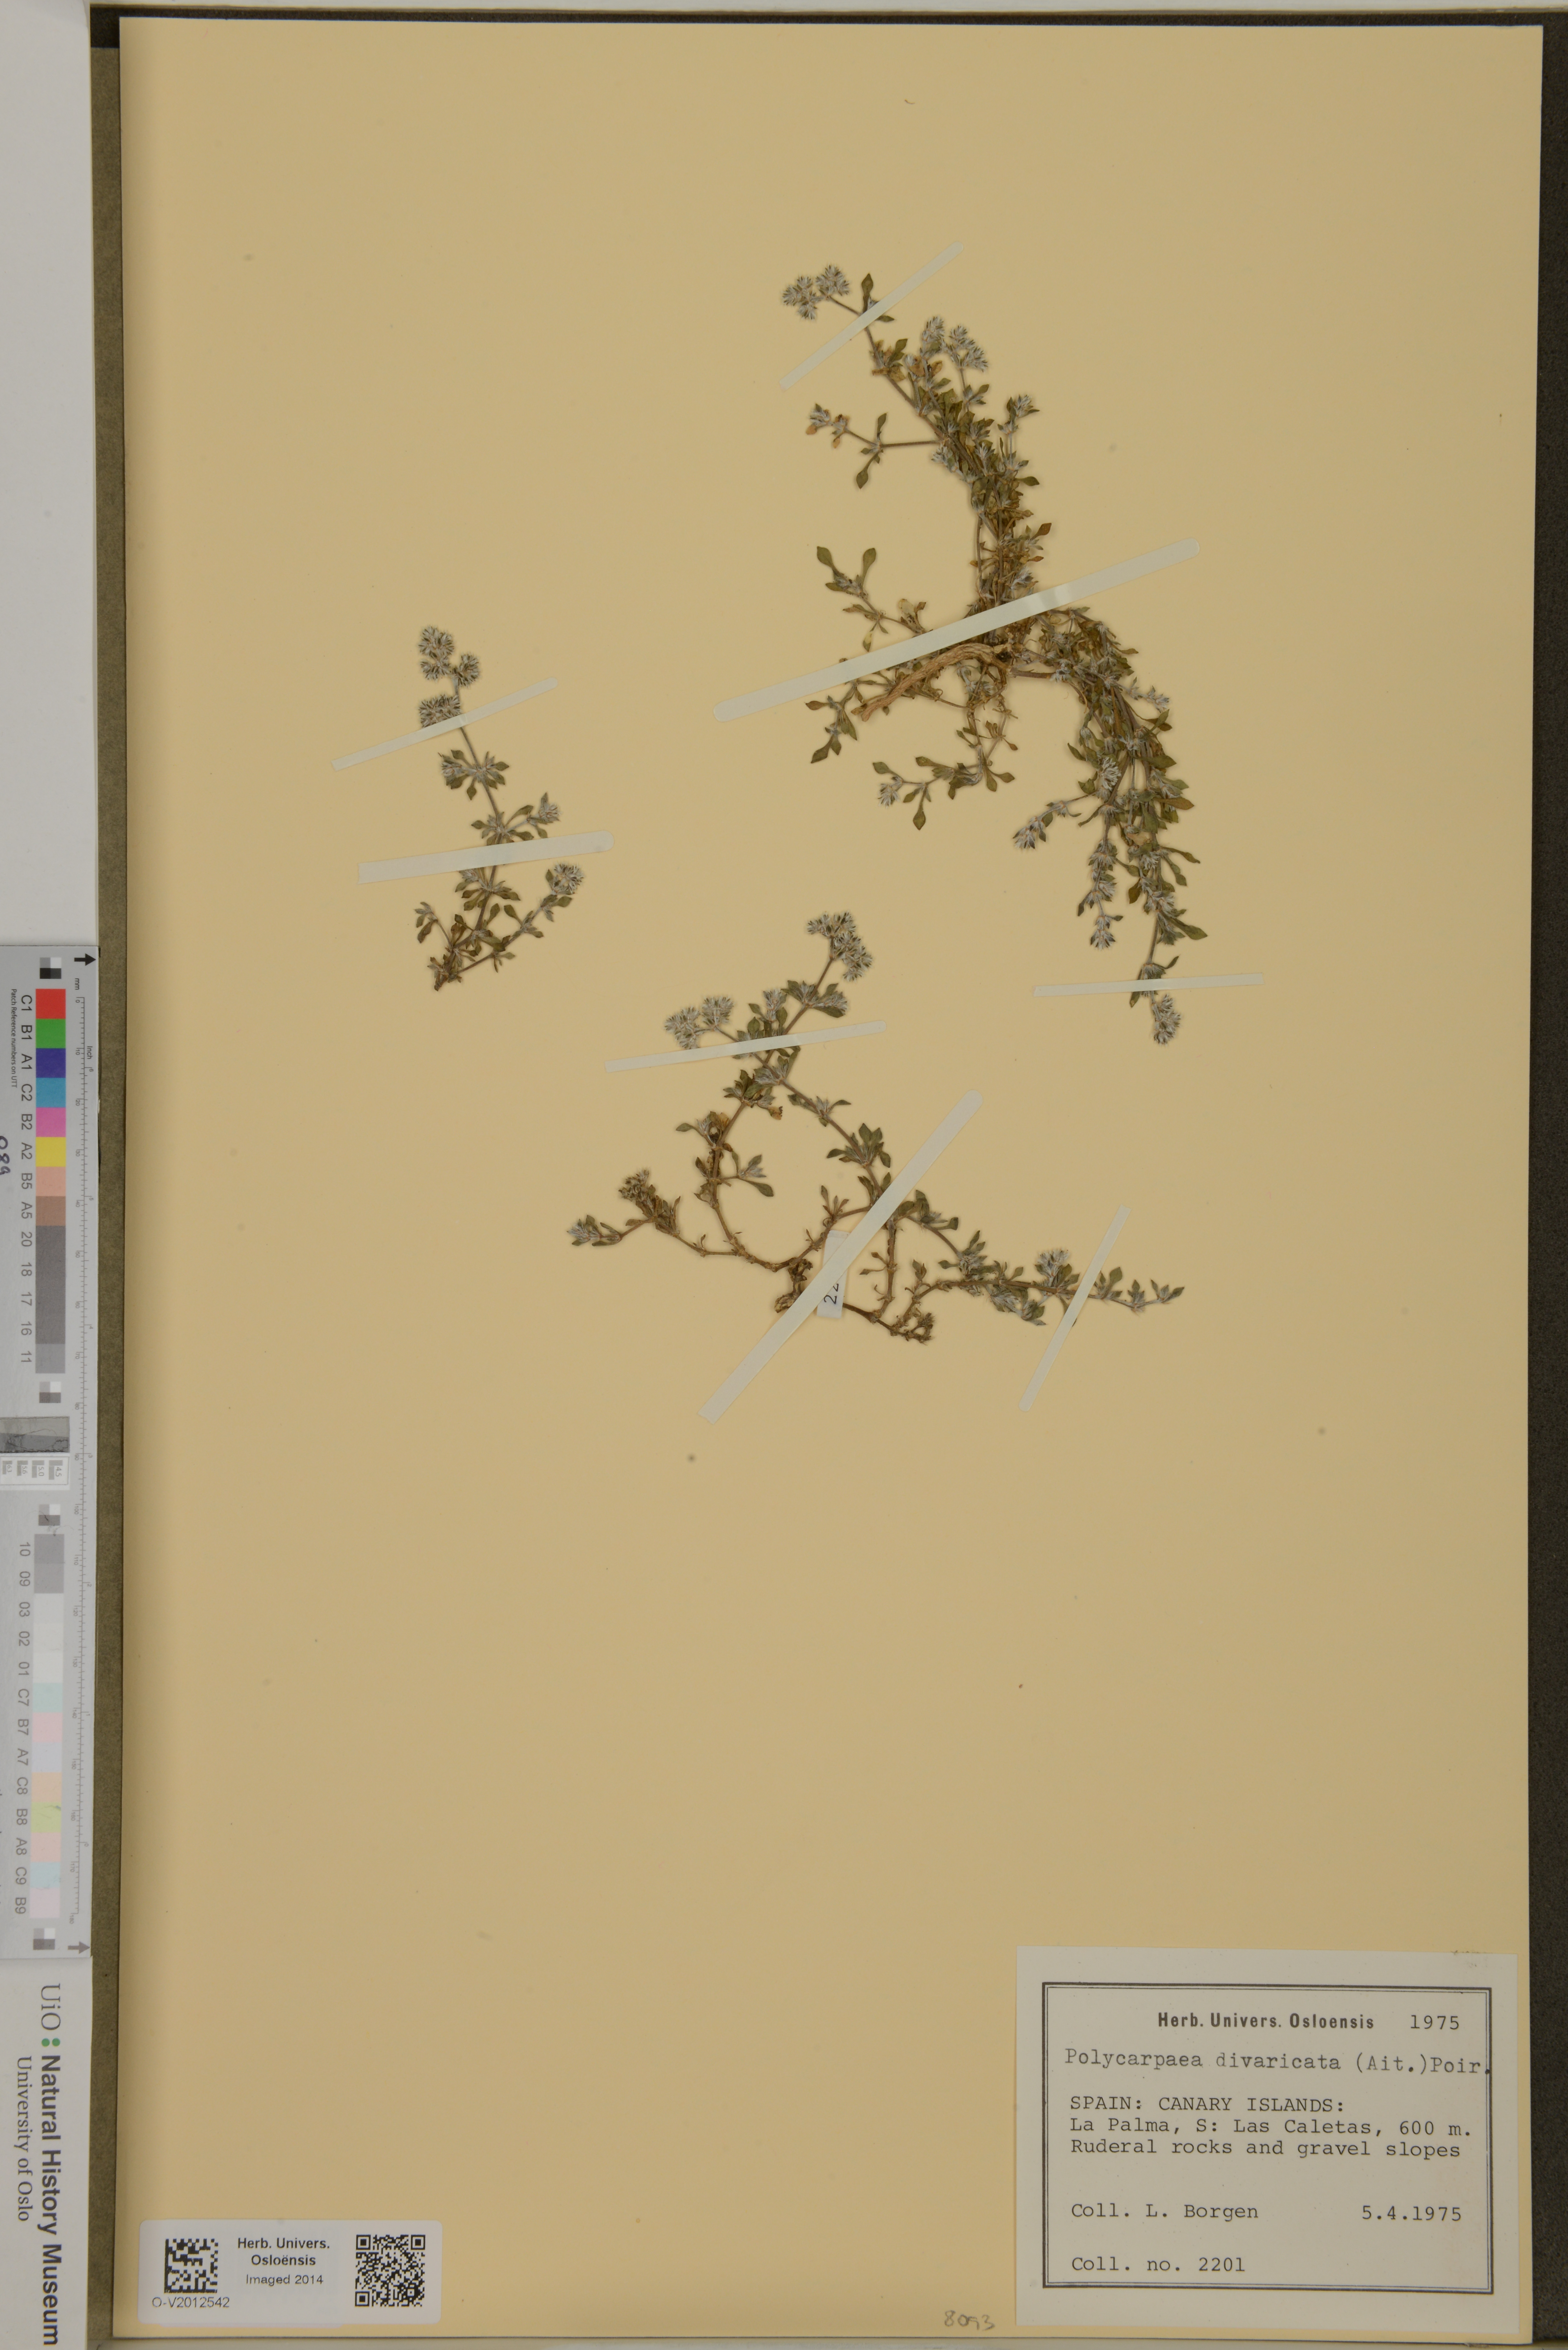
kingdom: Plantae
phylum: Tracheophyta
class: Magnoliopsida
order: Caryophyllales
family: Caryophyllaceae
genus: Polycarpaea
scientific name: Polycarpaea divaricata
